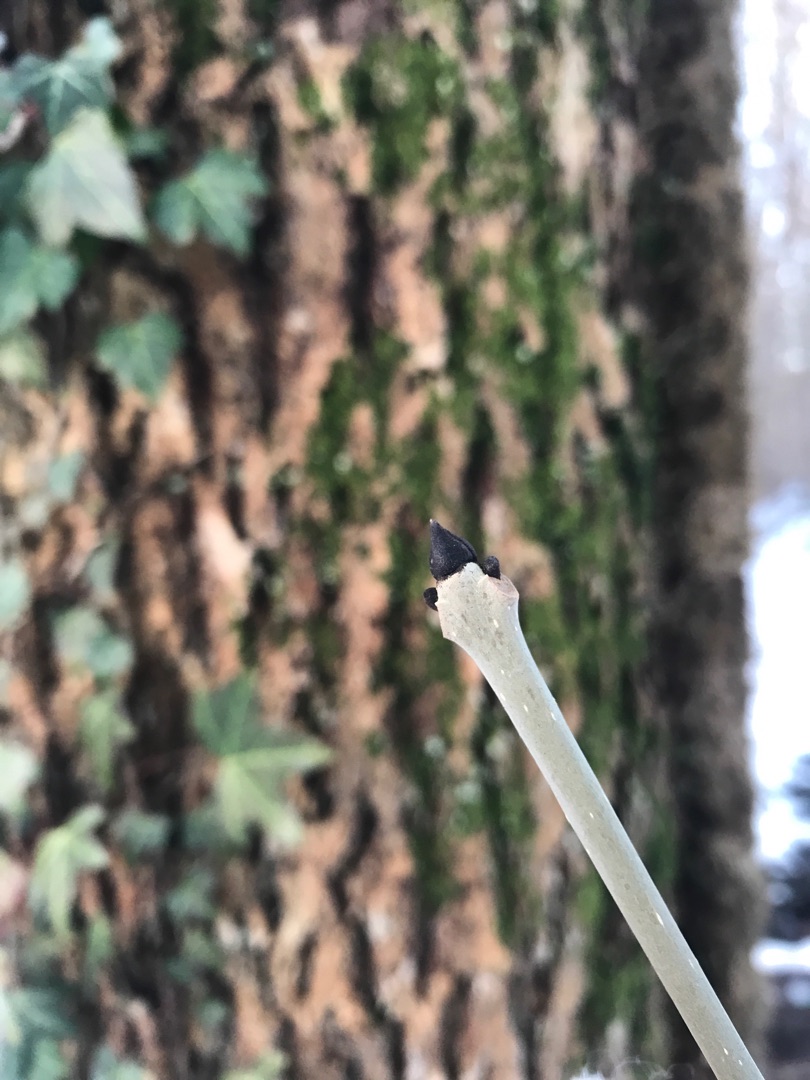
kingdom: Plantae
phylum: Tracheophyta
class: Magnoliopsida
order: Lamiales
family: Oleaceae
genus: Fraxinus
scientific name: Fraxinus excelsior
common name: Ask
